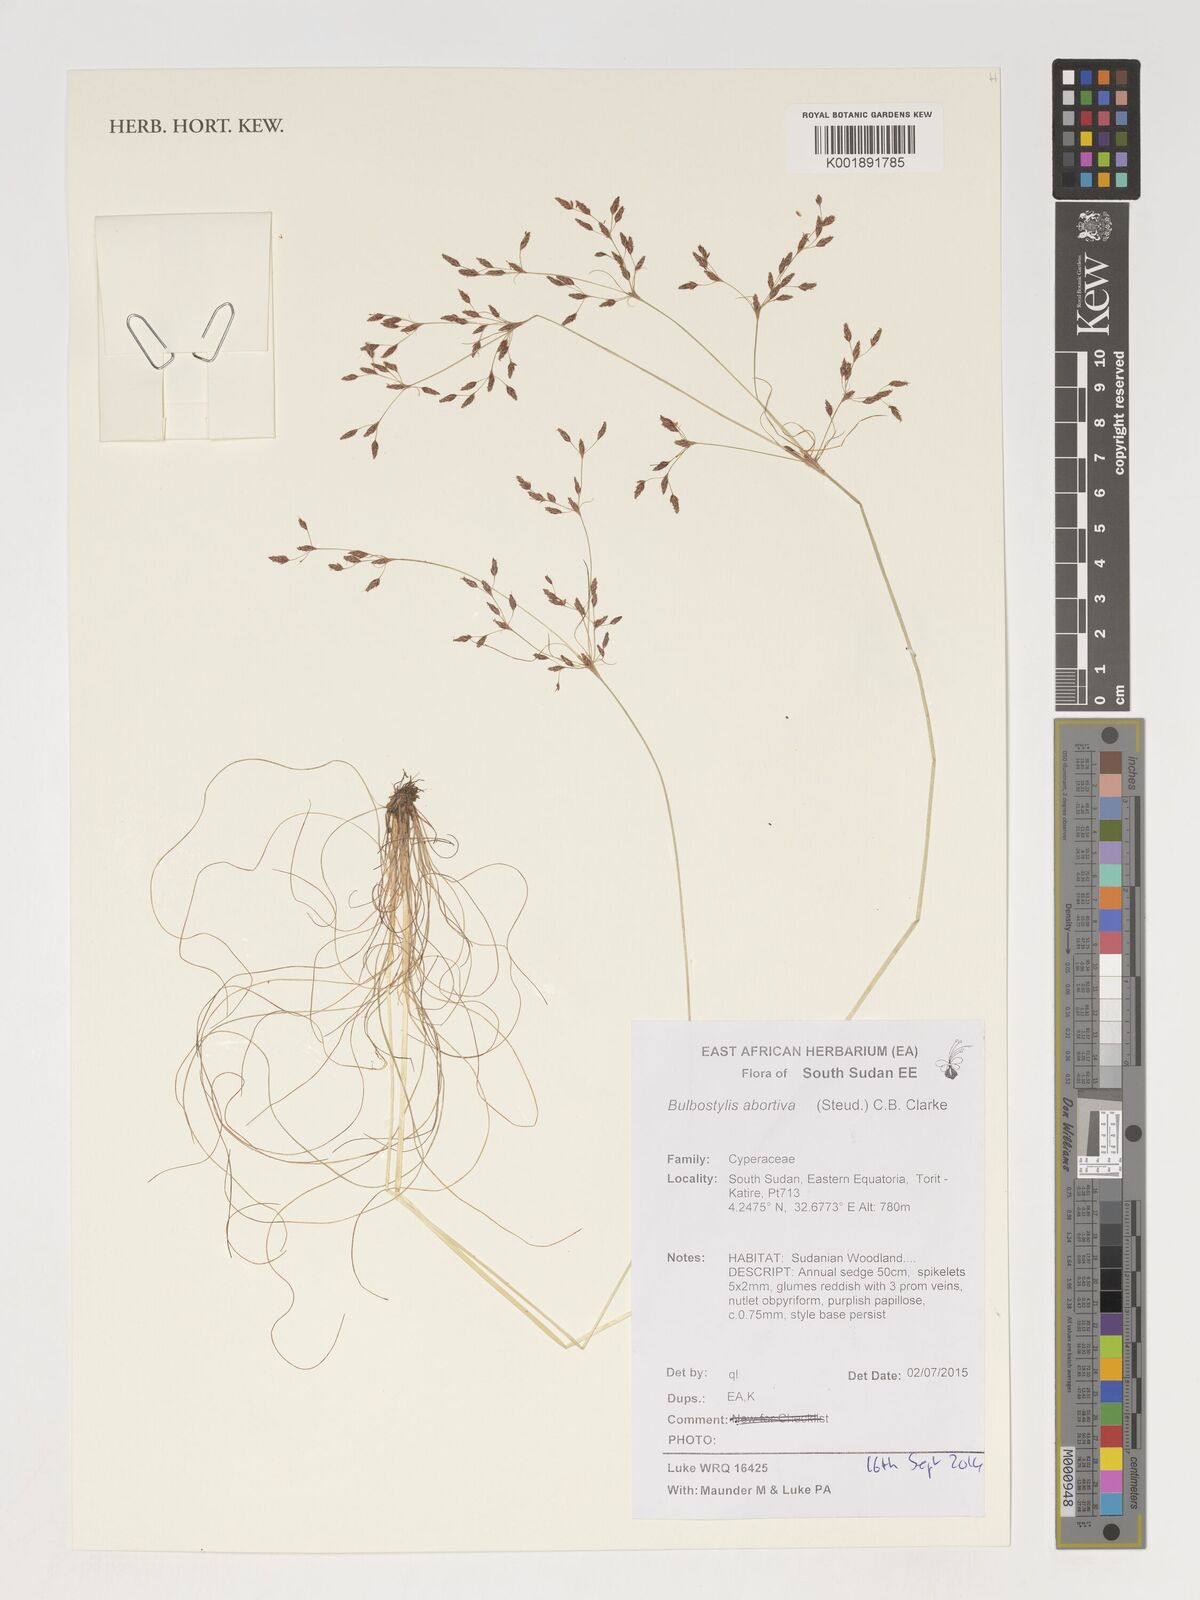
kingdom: Plantae
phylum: Tracheophyta
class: Liliopsida
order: Poales
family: Cyperaceae
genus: Bulbostylis
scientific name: Bulbostylis abortiva
